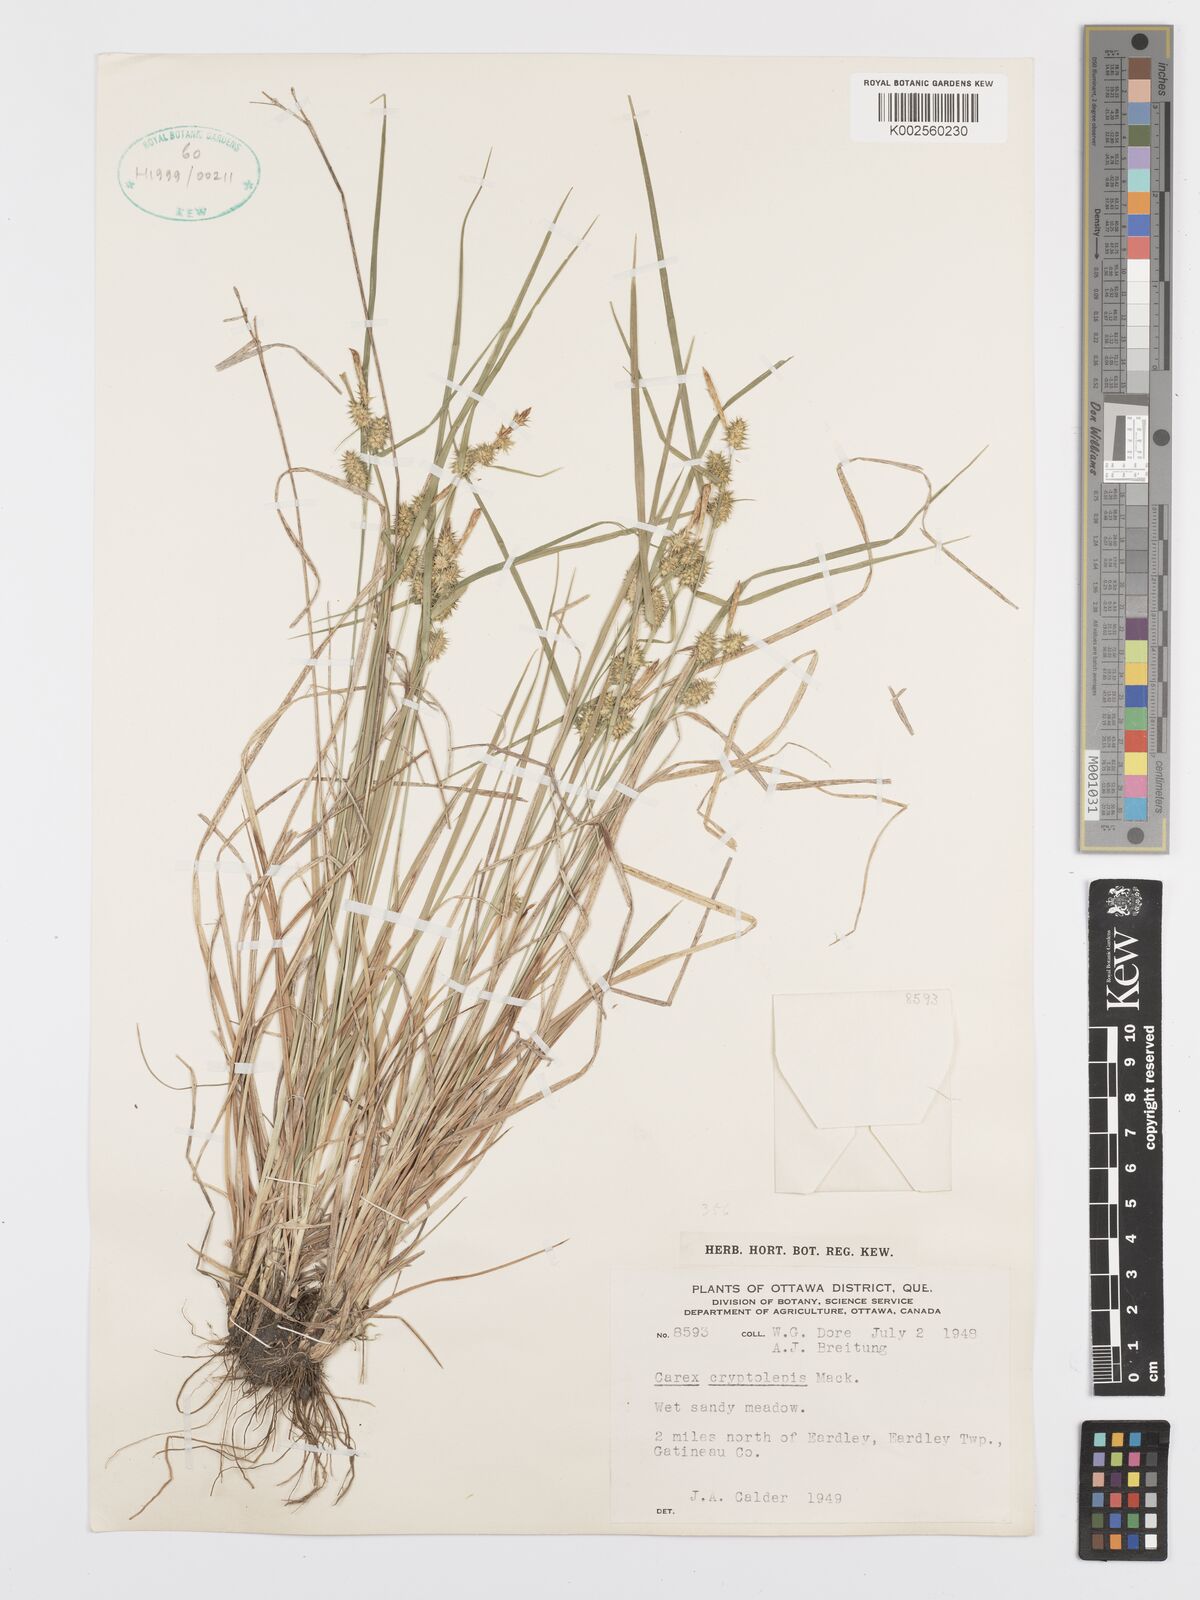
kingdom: Plantae
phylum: Tracheophyta
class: Liliopsida
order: Poales
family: Cyperaceae
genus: Carex
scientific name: Carex cryptolepis
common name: Northeastern sedge
